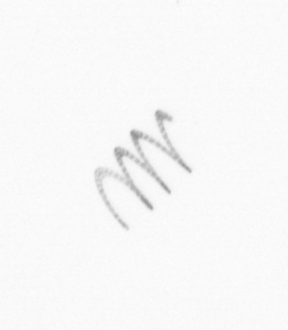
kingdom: Chromista
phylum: Ochrophyta
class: Bacillariophyceae
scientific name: Bacillariophyceae
